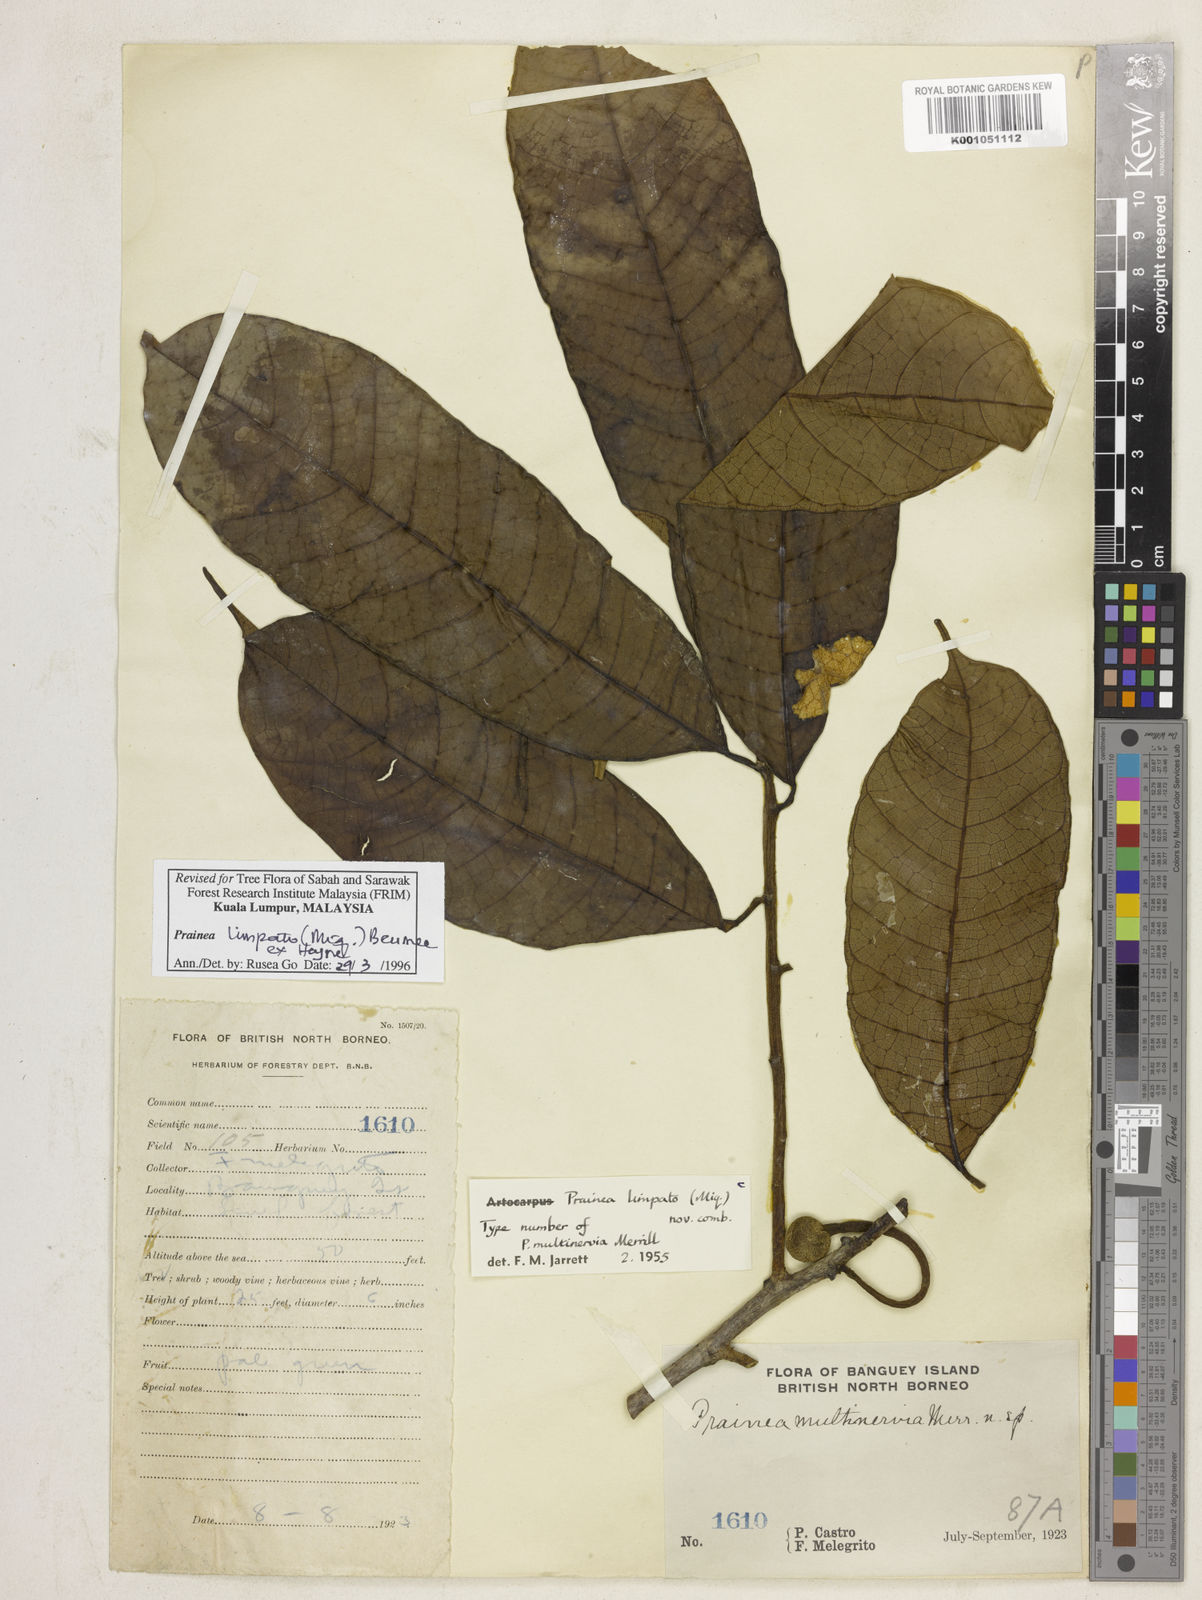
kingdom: Plantae
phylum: Tracheophyta
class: Magnoliopsida
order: Rosales
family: Moraceae
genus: Prainea
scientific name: Prainea limpato
